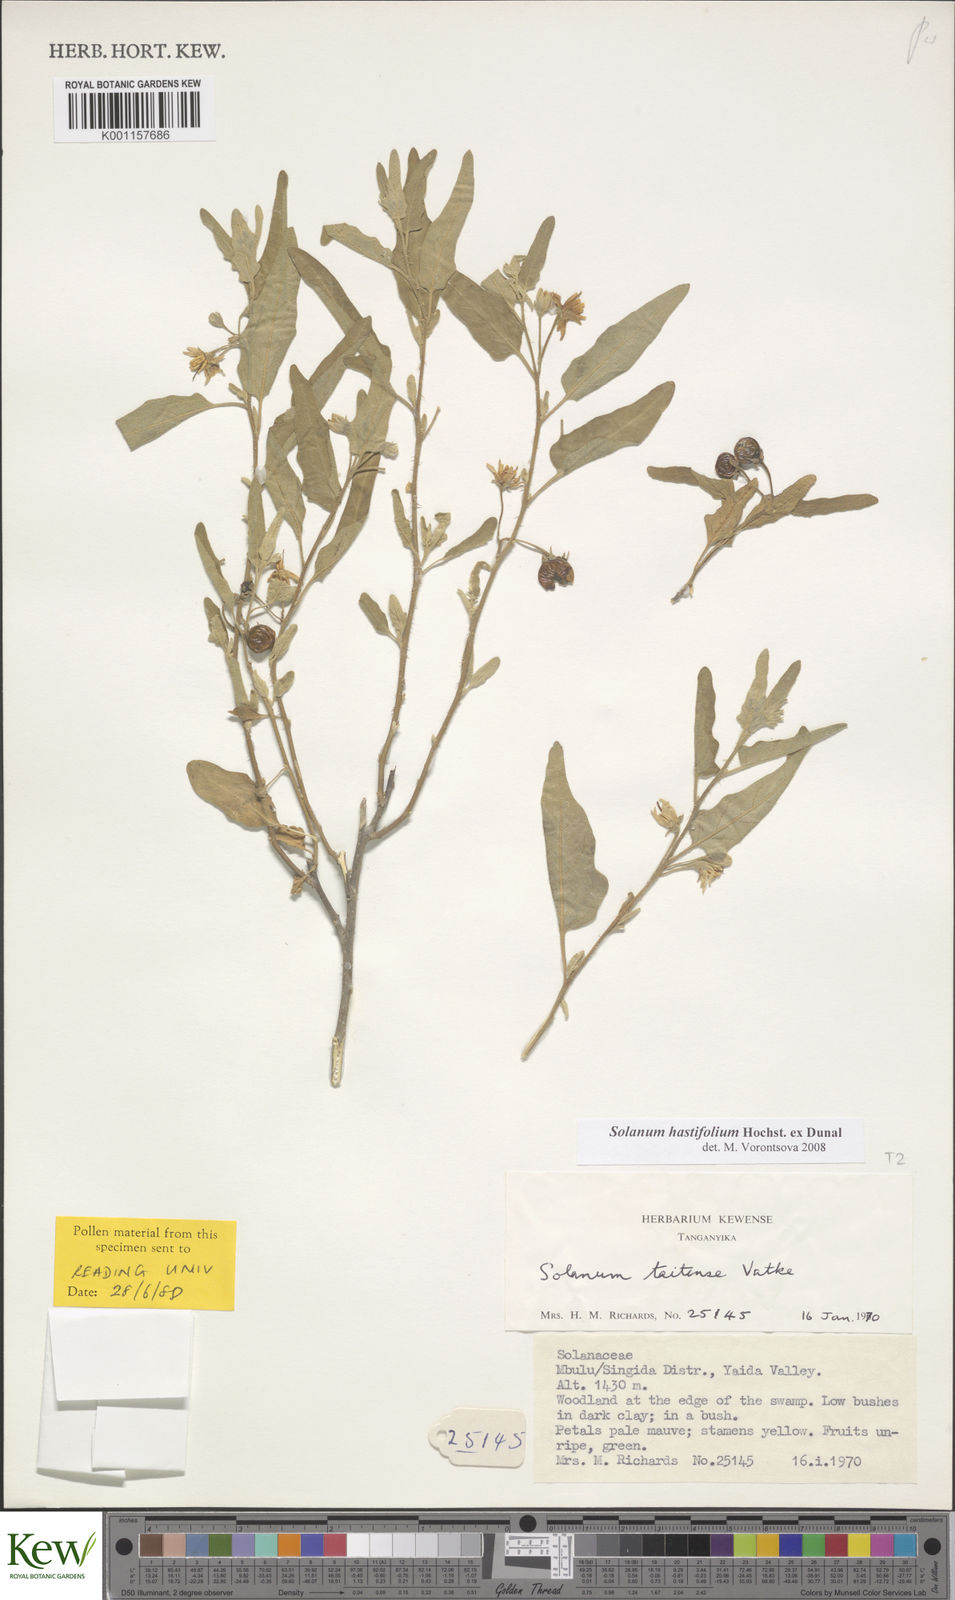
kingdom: Plantae
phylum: Tracheophyta
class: Magnoliopsida
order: Solanales
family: Solanaceae
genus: Solanum
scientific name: Solanum hastifolium
